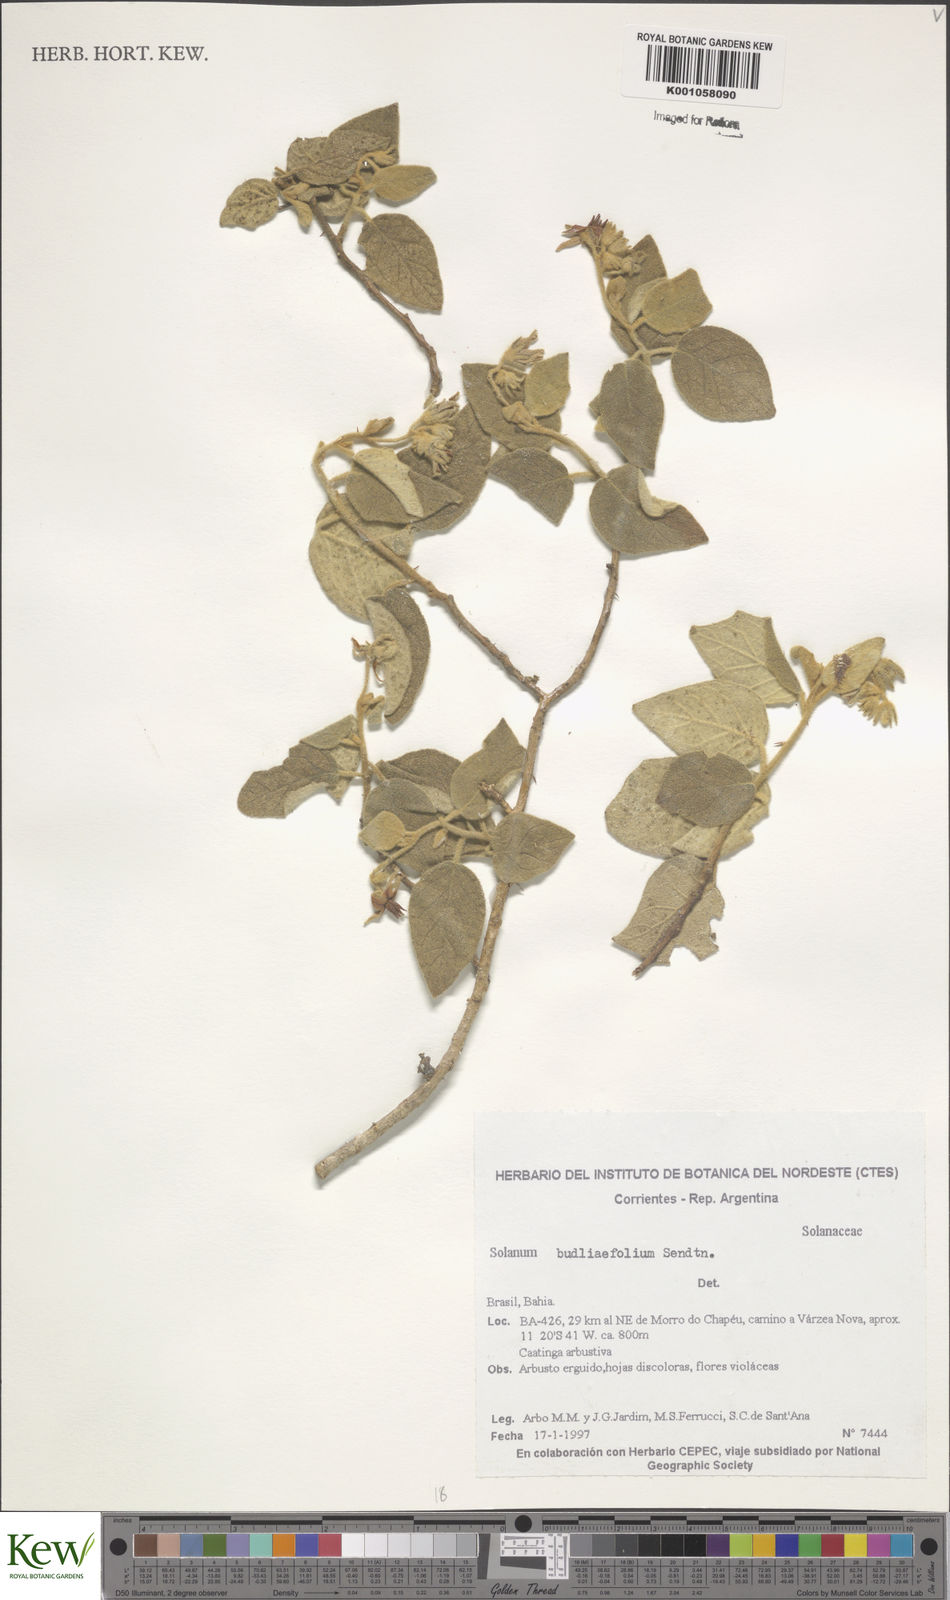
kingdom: Plantae
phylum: Tracheophyta
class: Magnoliopsida
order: Solanales
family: Solanaceae
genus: Solanum
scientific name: Solanum
